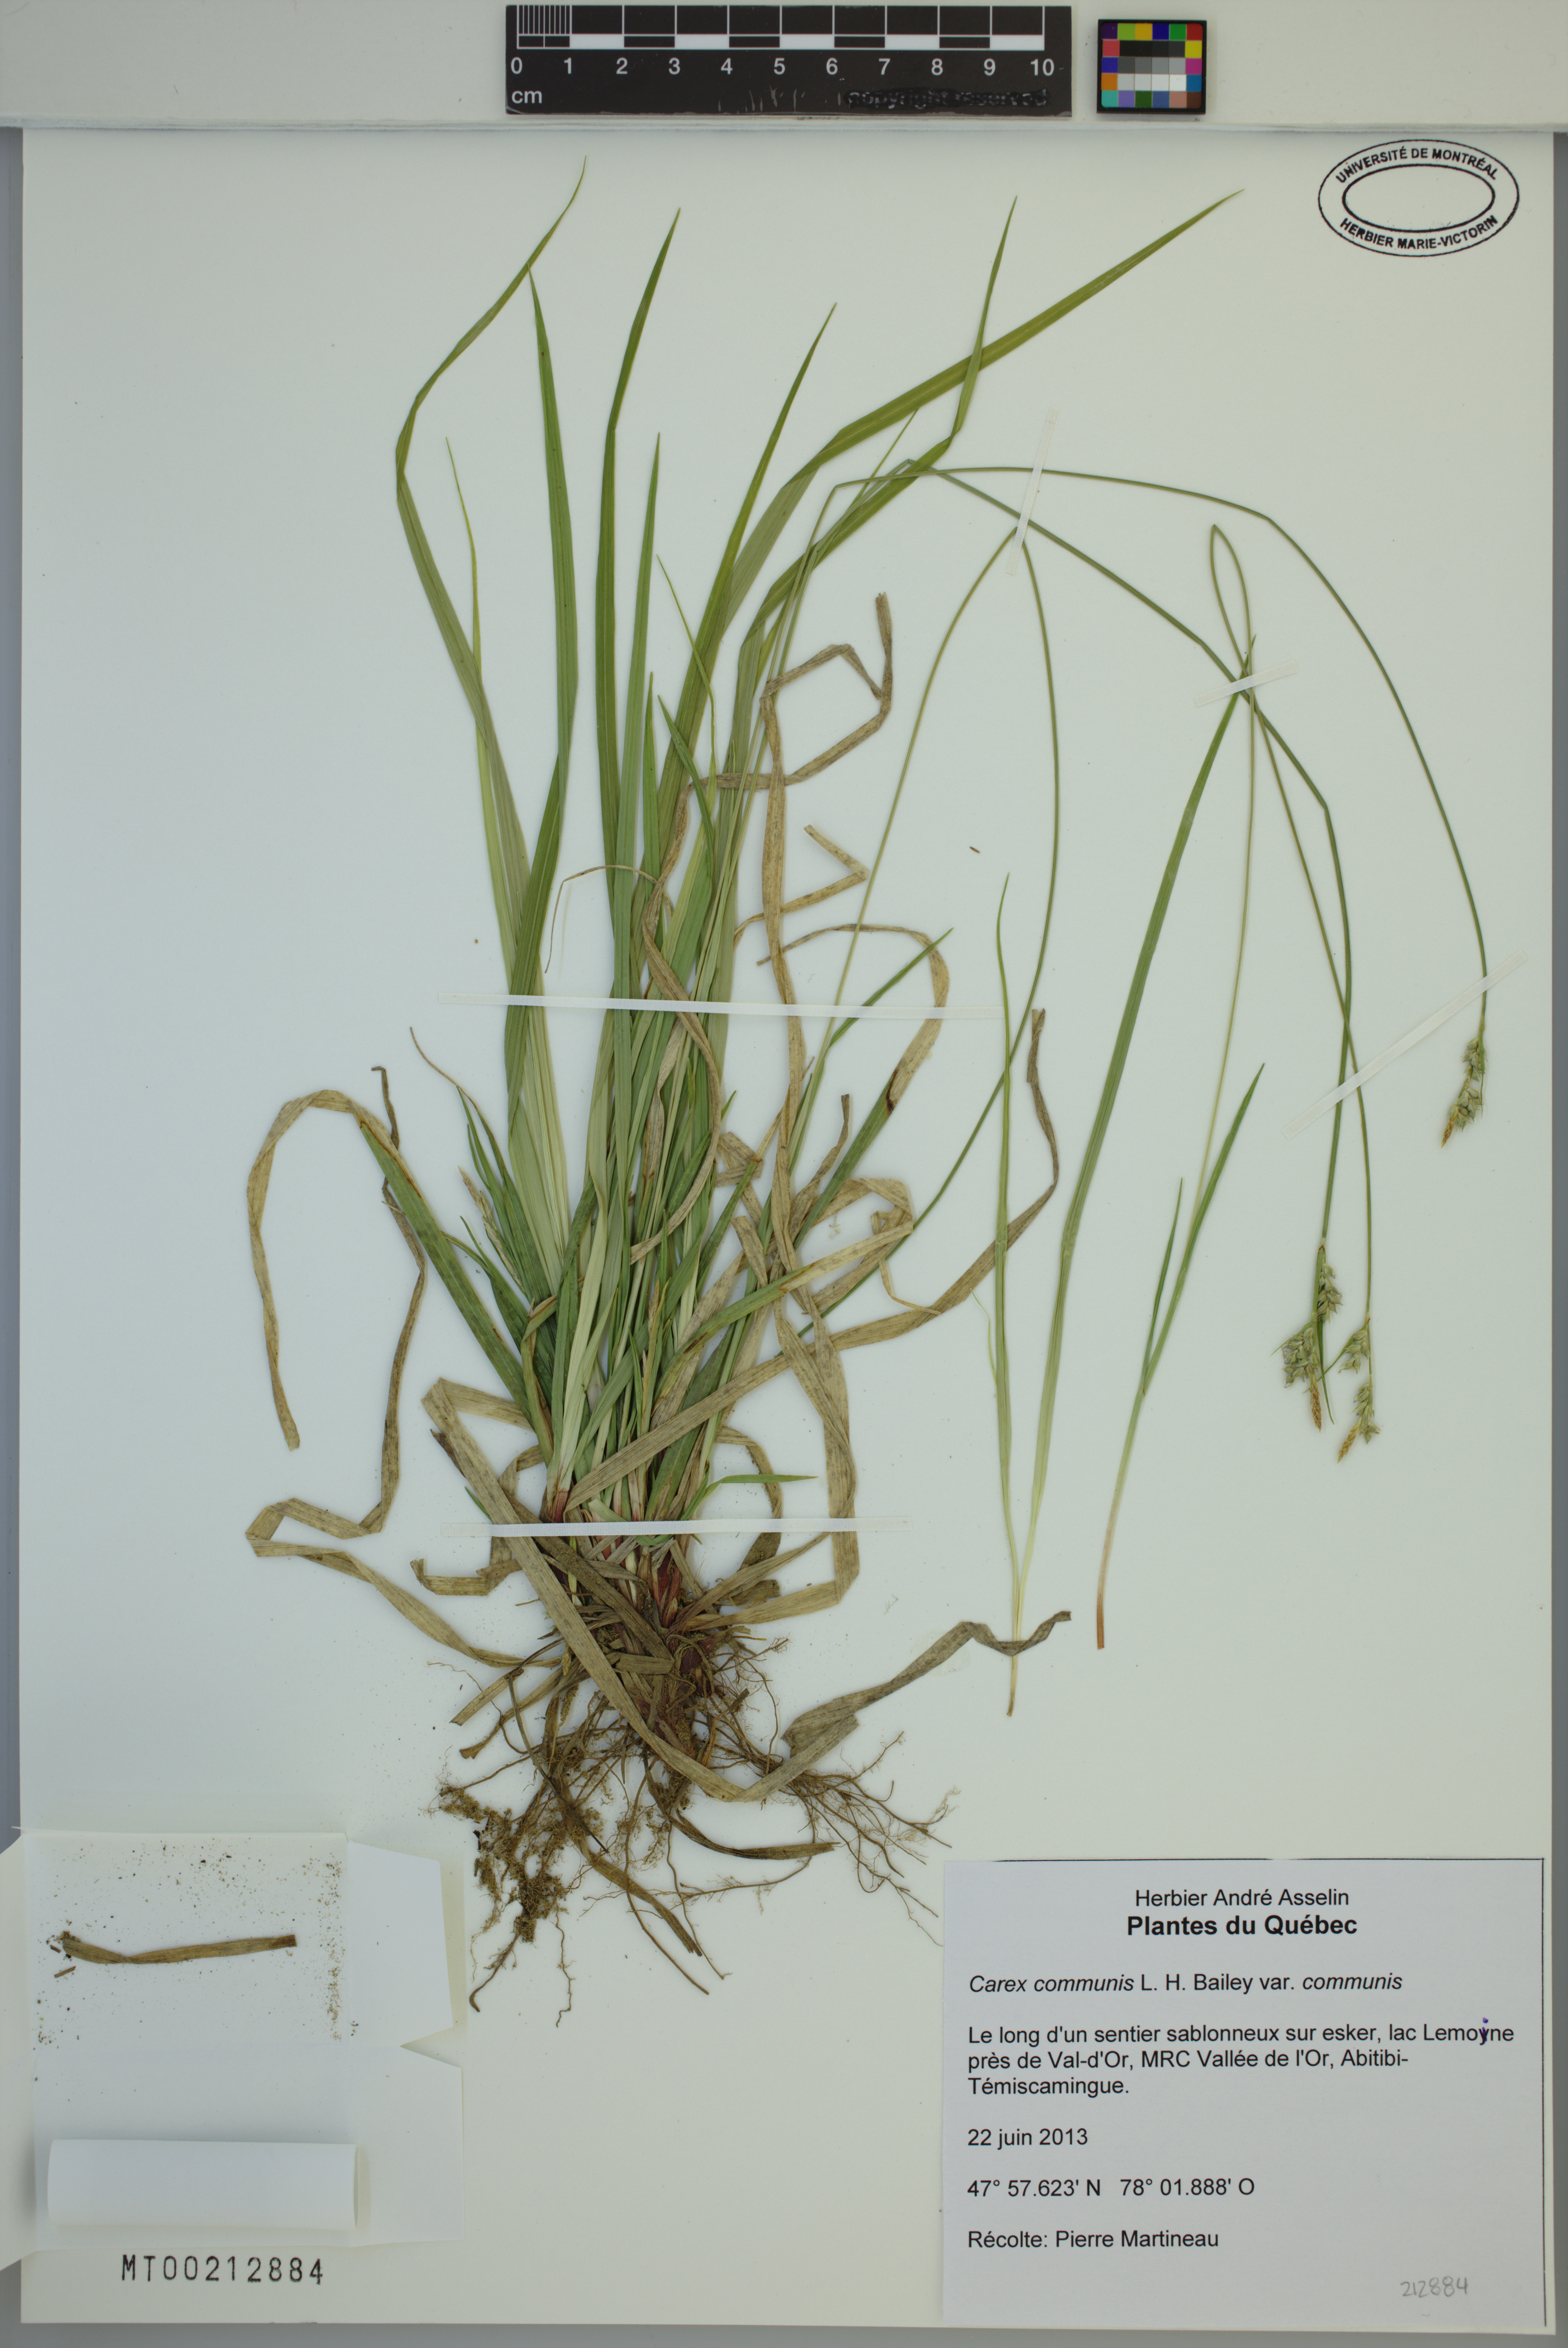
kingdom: Plantae
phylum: Tracheophyta
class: Liliopsida
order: Poales
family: Cyperaceae
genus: Carex
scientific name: Carex communis
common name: Colonial oak sedge
